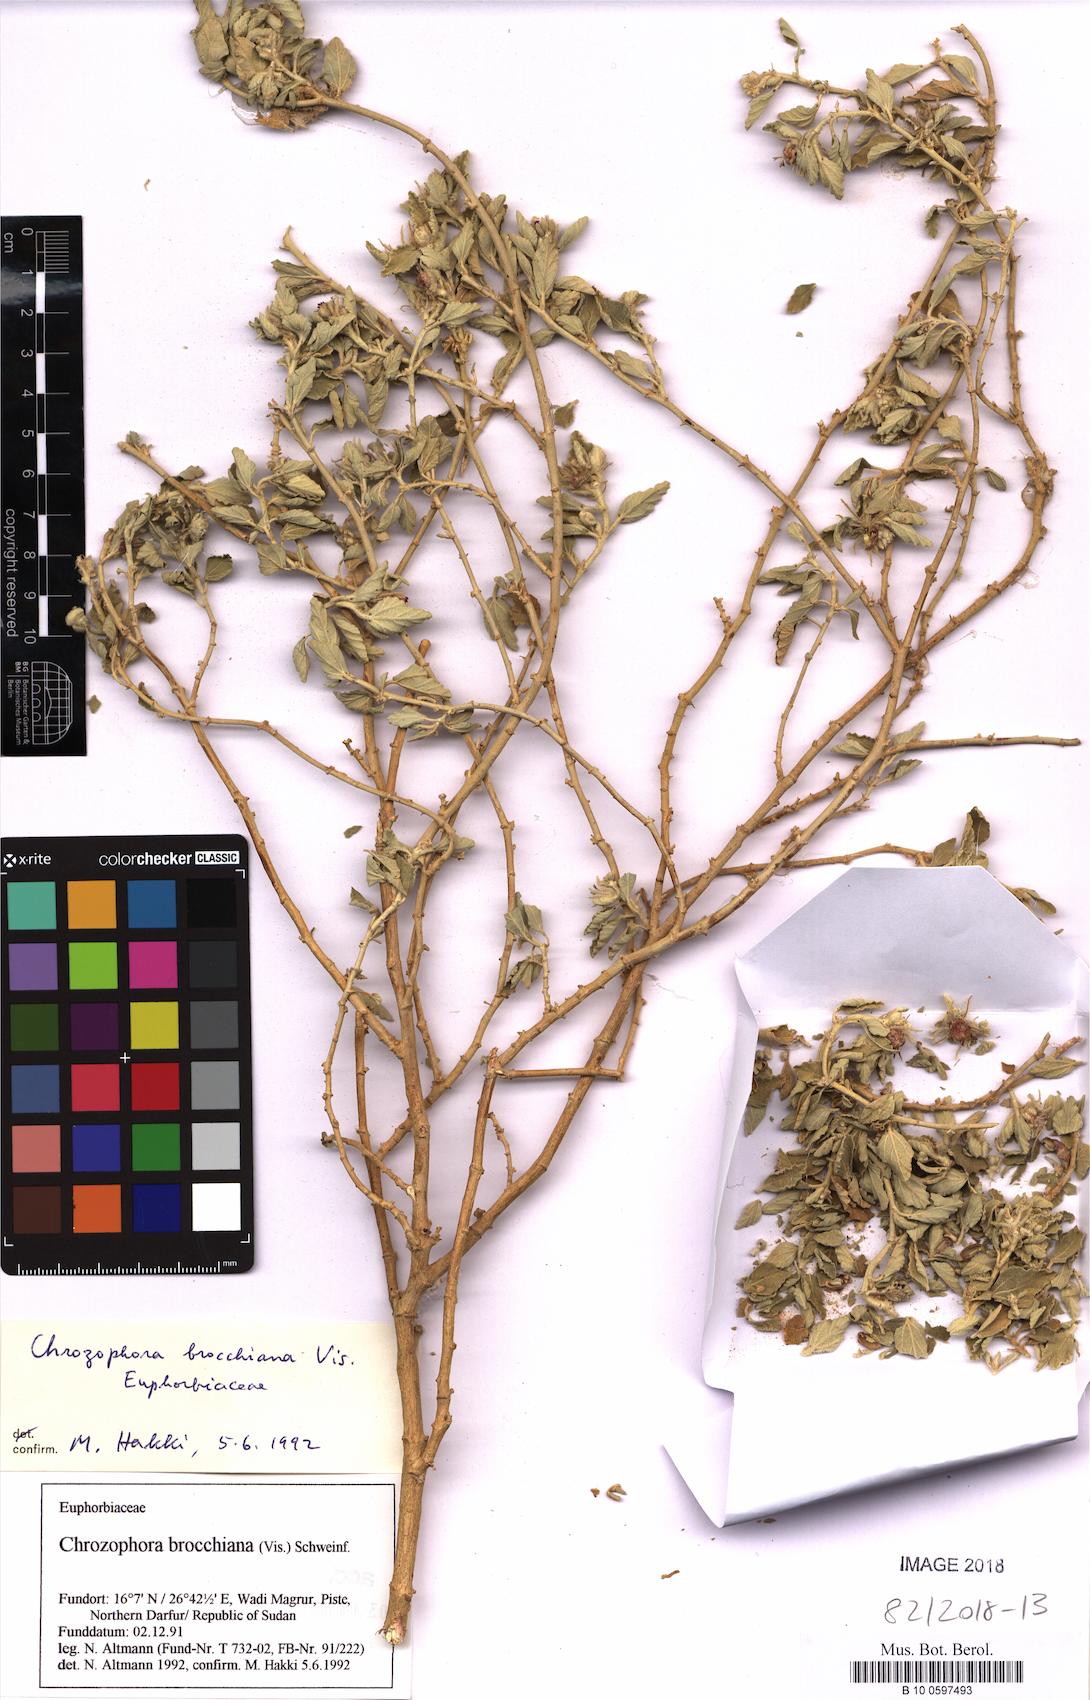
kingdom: Plantae
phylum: Tracheophyta
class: Magnoliopsida
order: Malpighiales
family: Euphorbiaceae
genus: Chrozophora
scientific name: Chrozophora brocchiana
